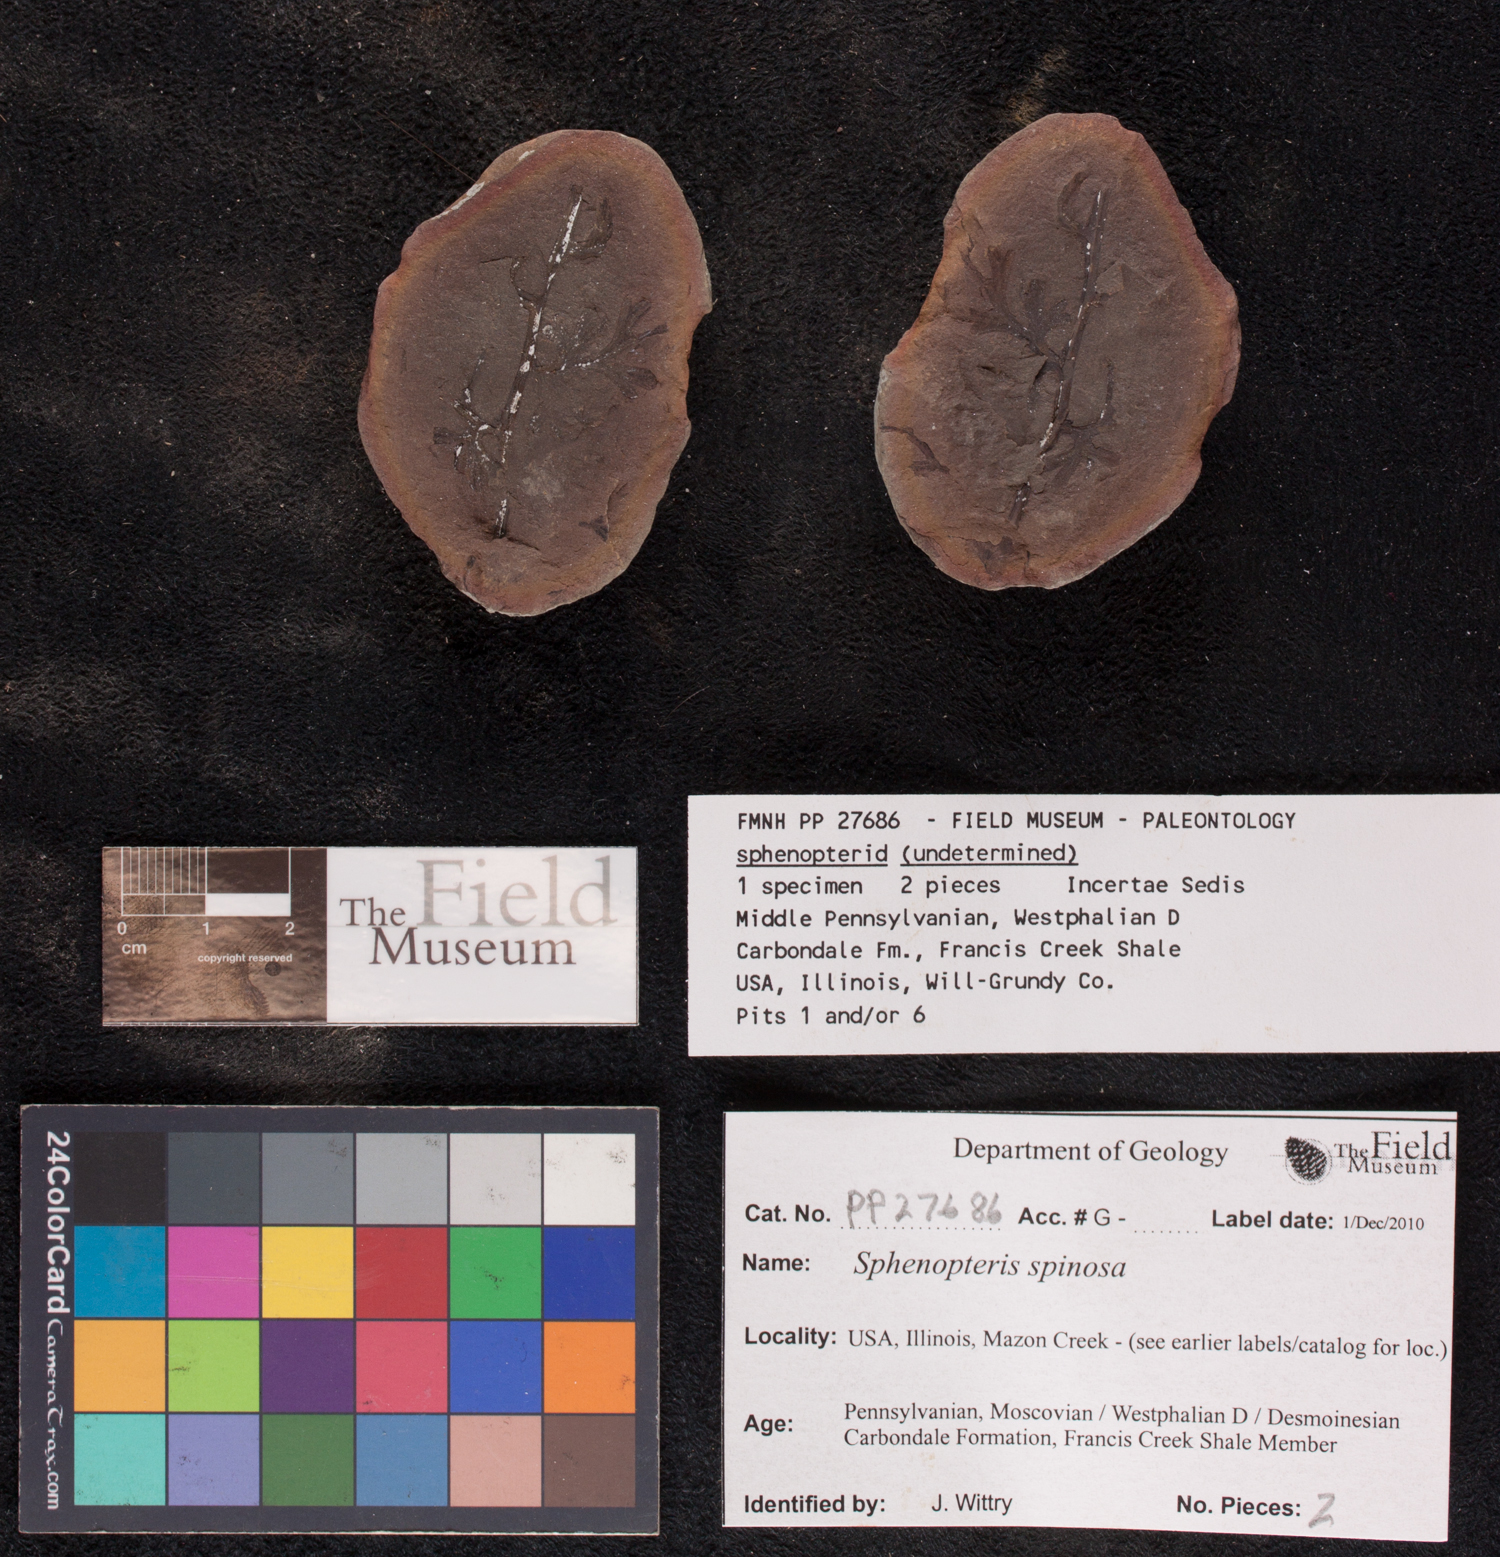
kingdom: Plantae
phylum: Tracheophyta
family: Lyginopteridaceae
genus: Sphenopteris
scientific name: Sphenopteris
